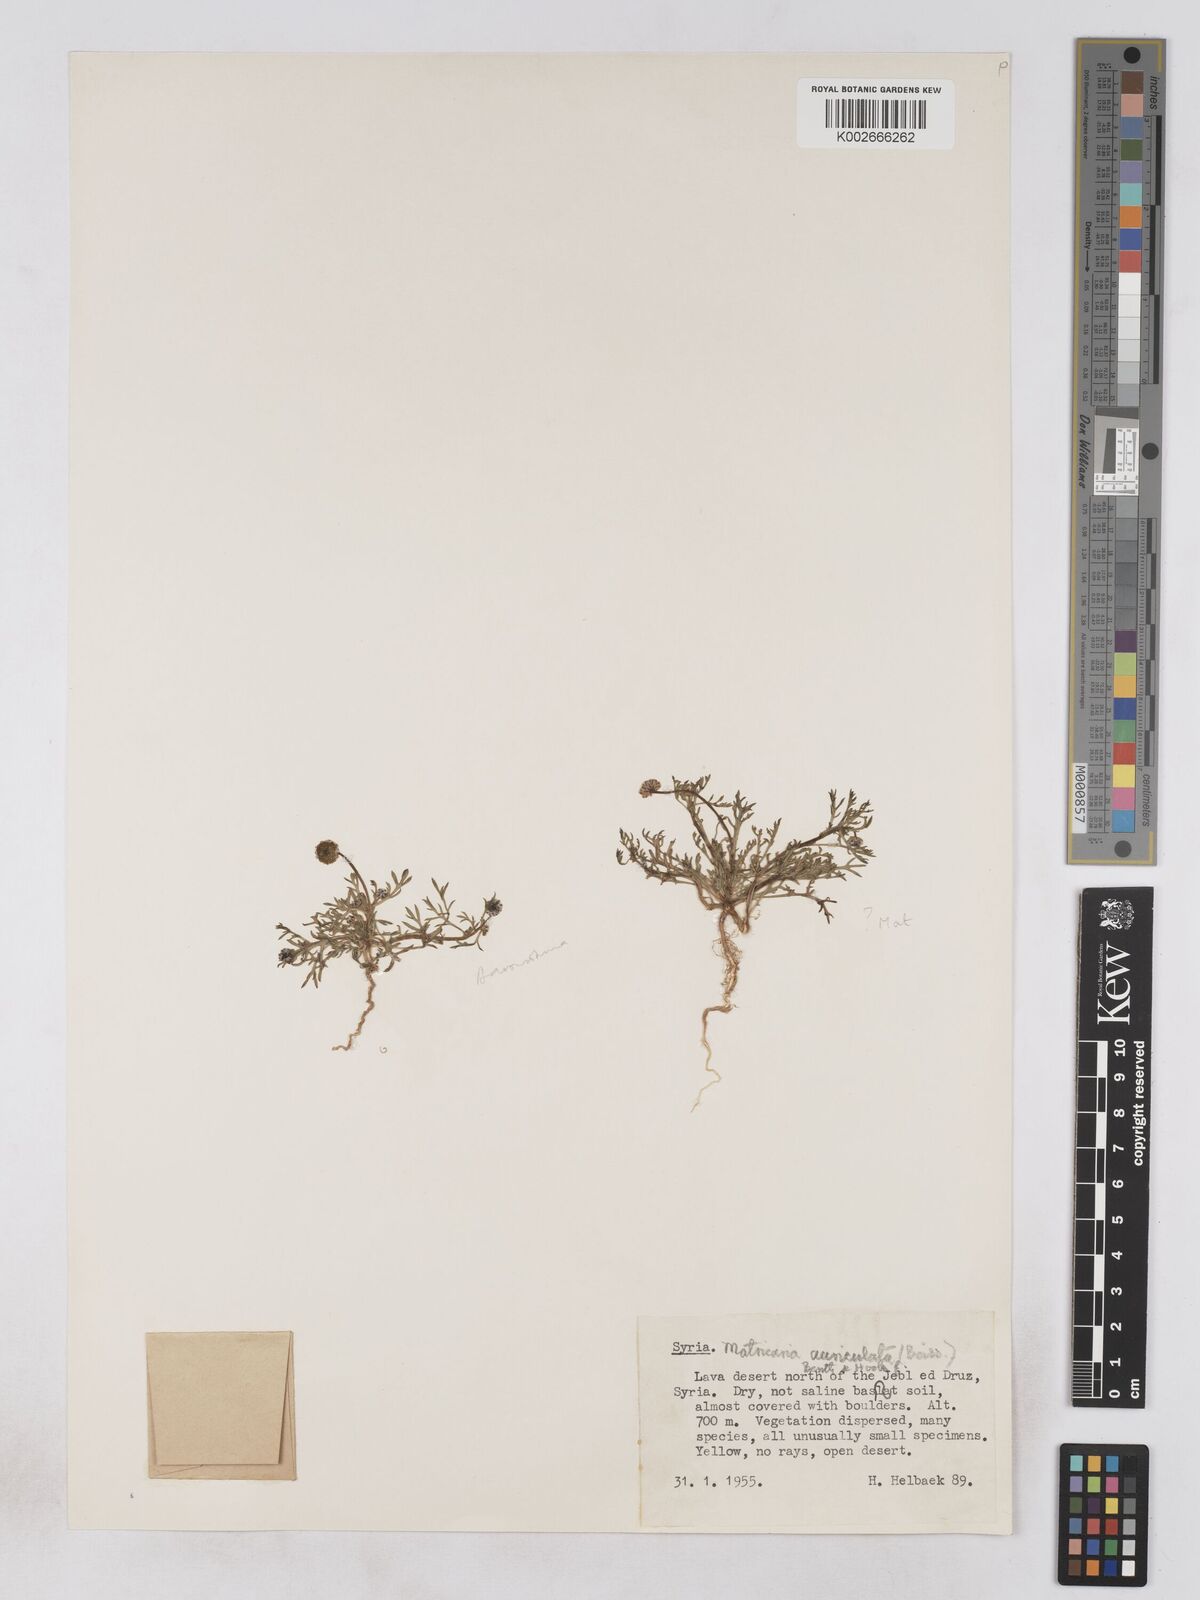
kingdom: Plantae
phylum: Tracheophyta
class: Magnoliopsida
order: Asterales
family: Asteraceae
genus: Otoglyphis
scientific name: Otoglyphis factorovskyi
